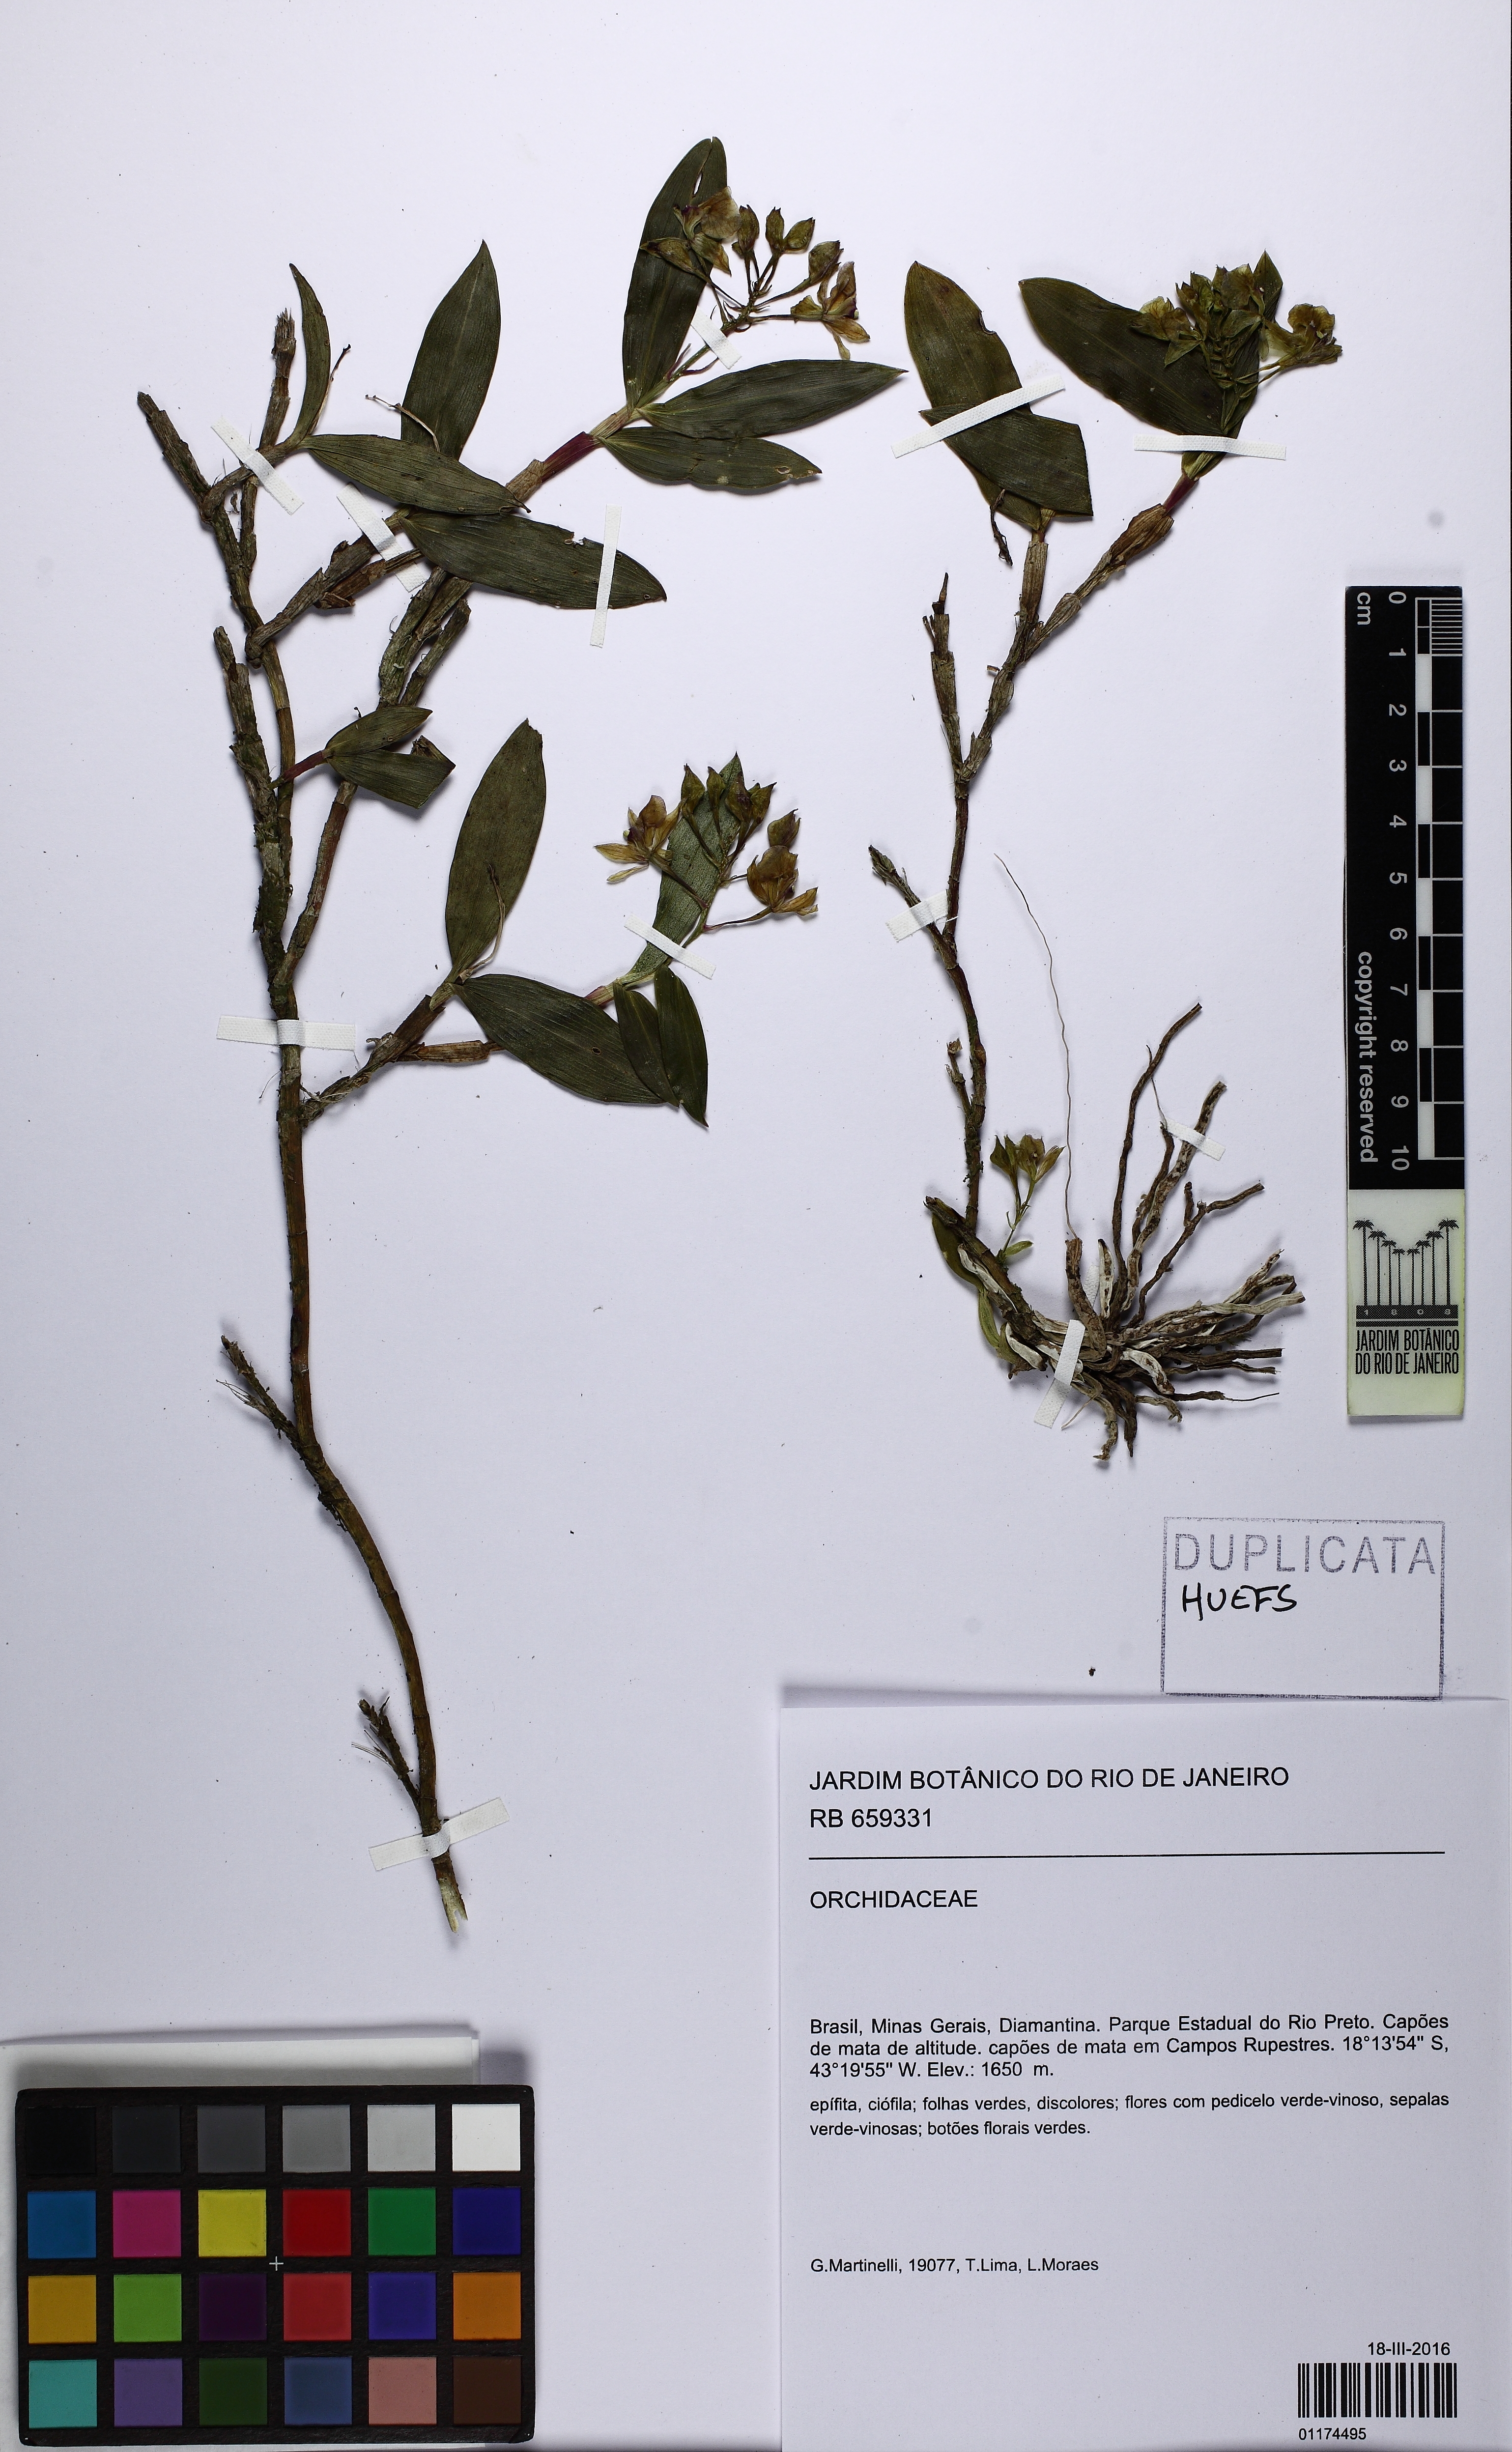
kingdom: Plantae
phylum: Tracheophyta
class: Liliopsida
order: Asparagales
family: Orchidaceae
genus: Epidendrum
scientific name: Epidendrum parahybunense
